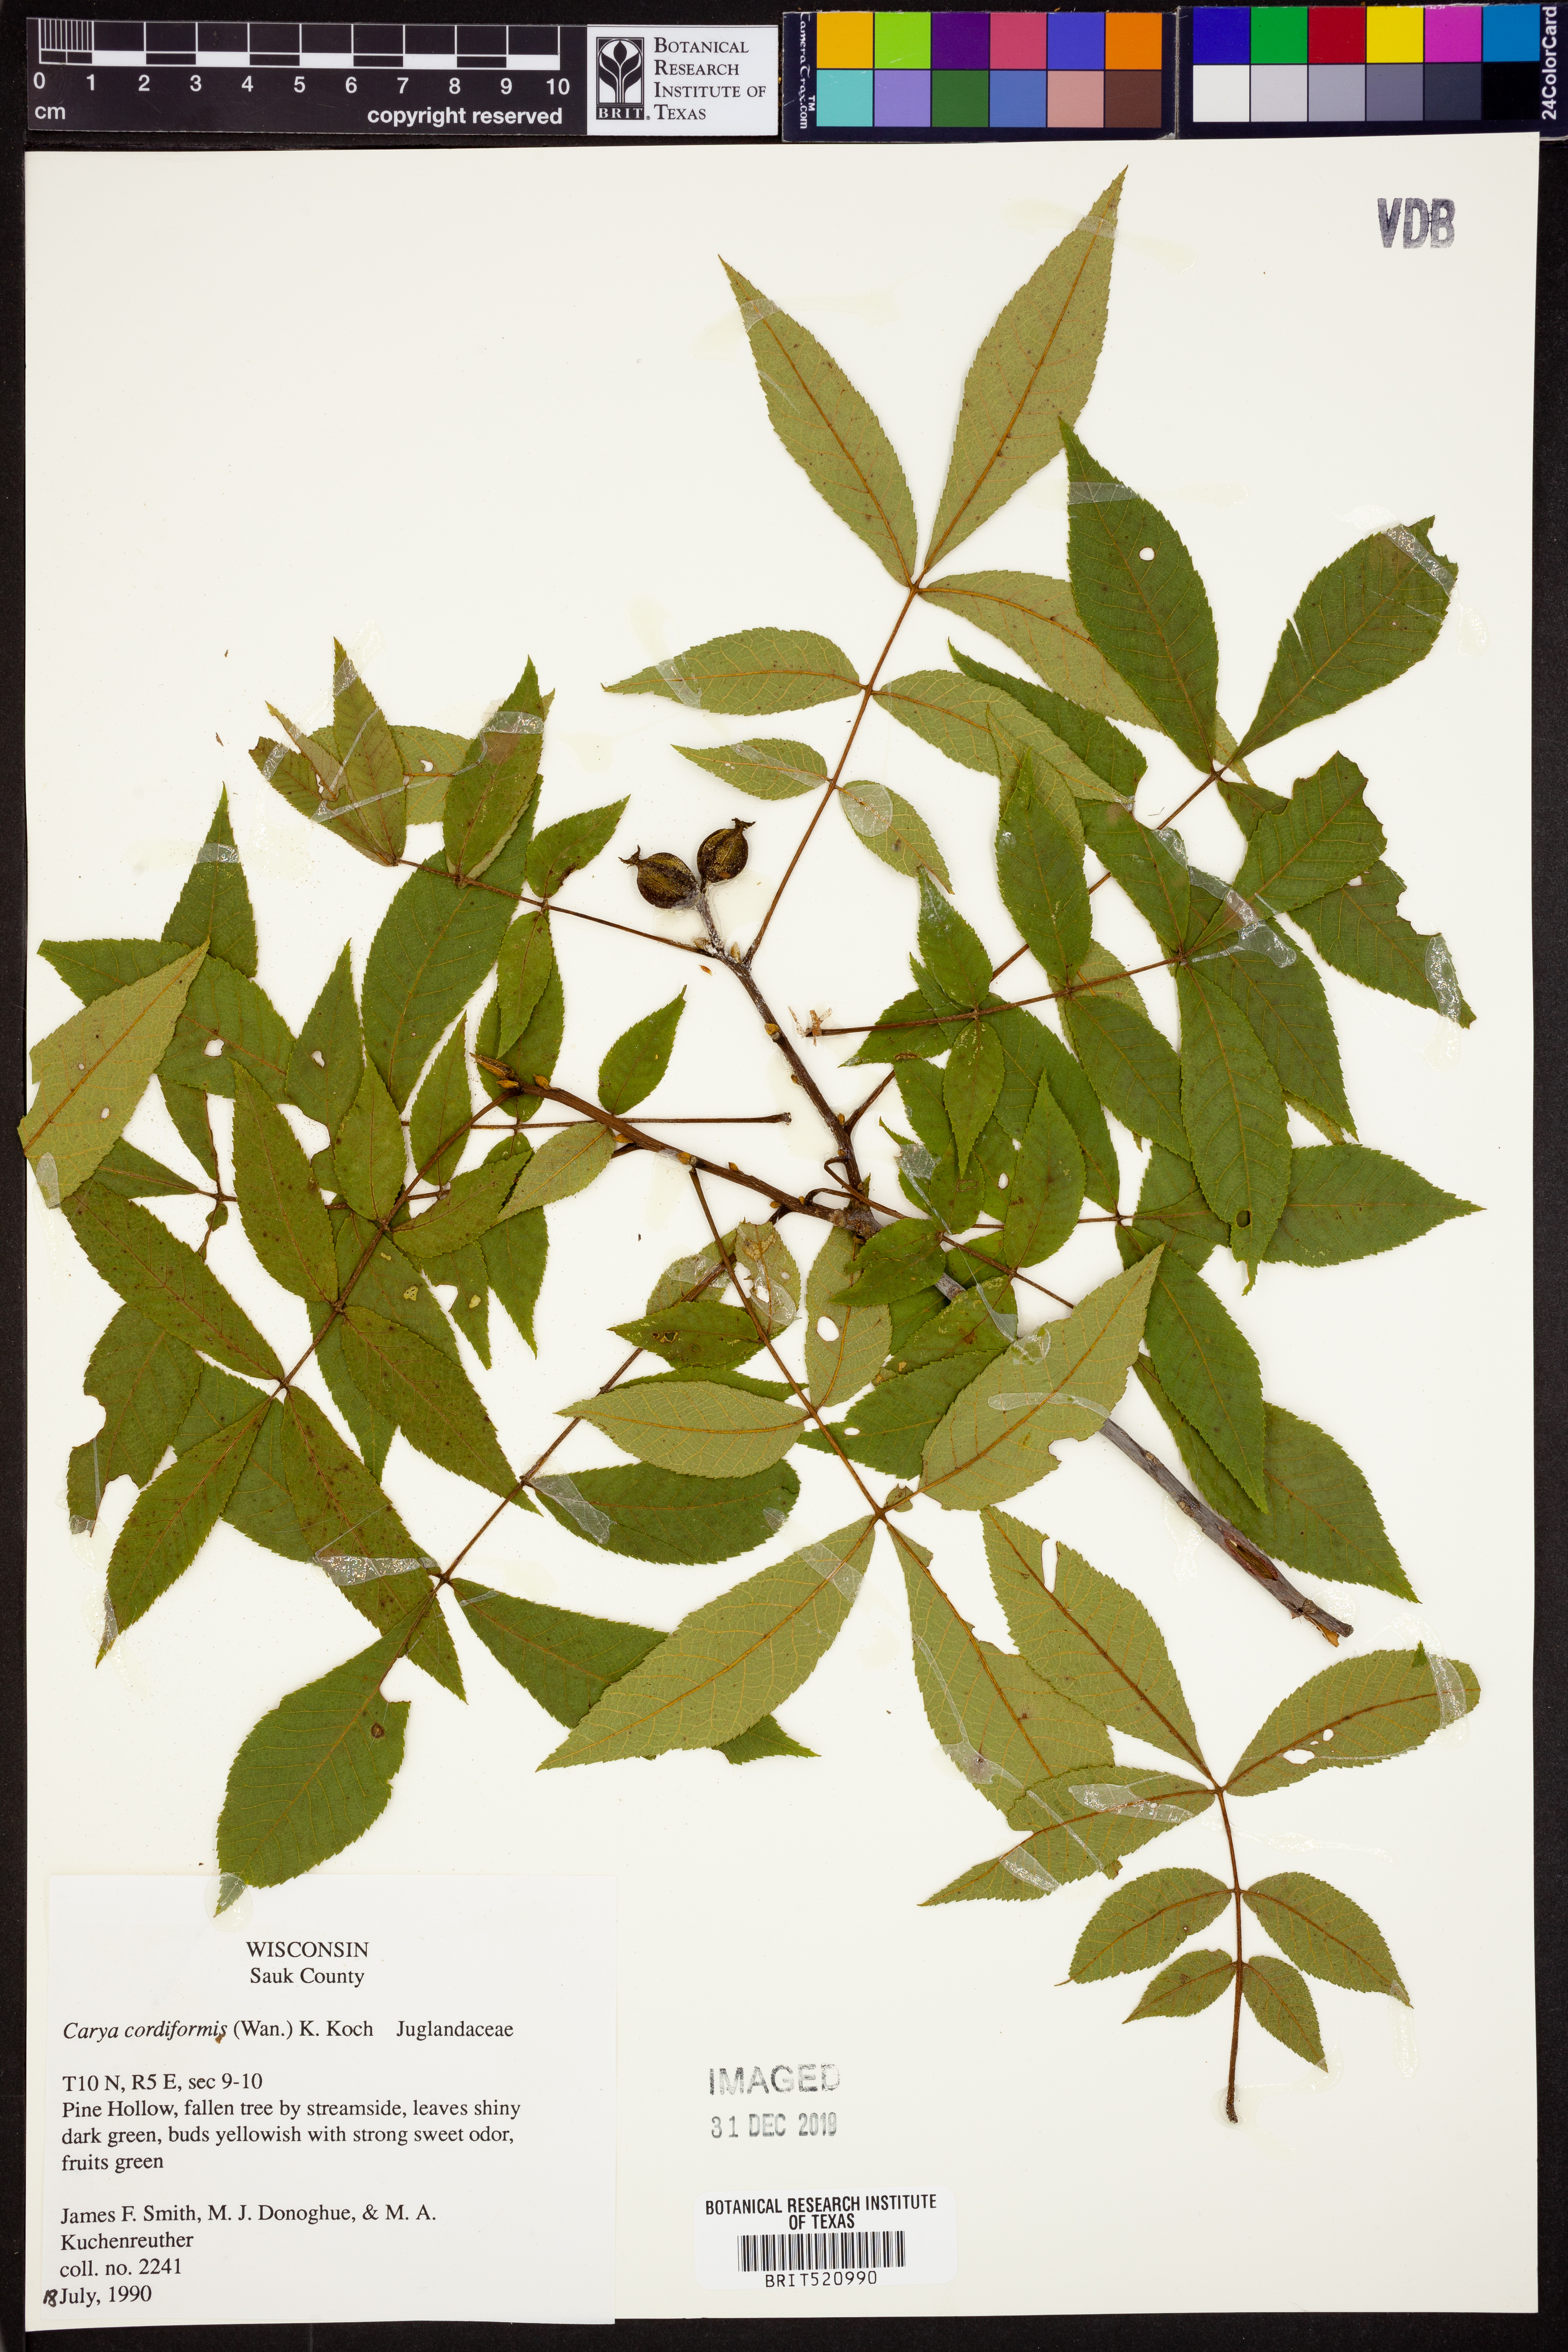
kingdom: Plantae
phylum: Tracheophyta
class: Magnoliopsida
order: Fagales
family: Juglandaceae
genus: Carya
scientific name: Carya cordiformis
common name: Bitternut hickory
